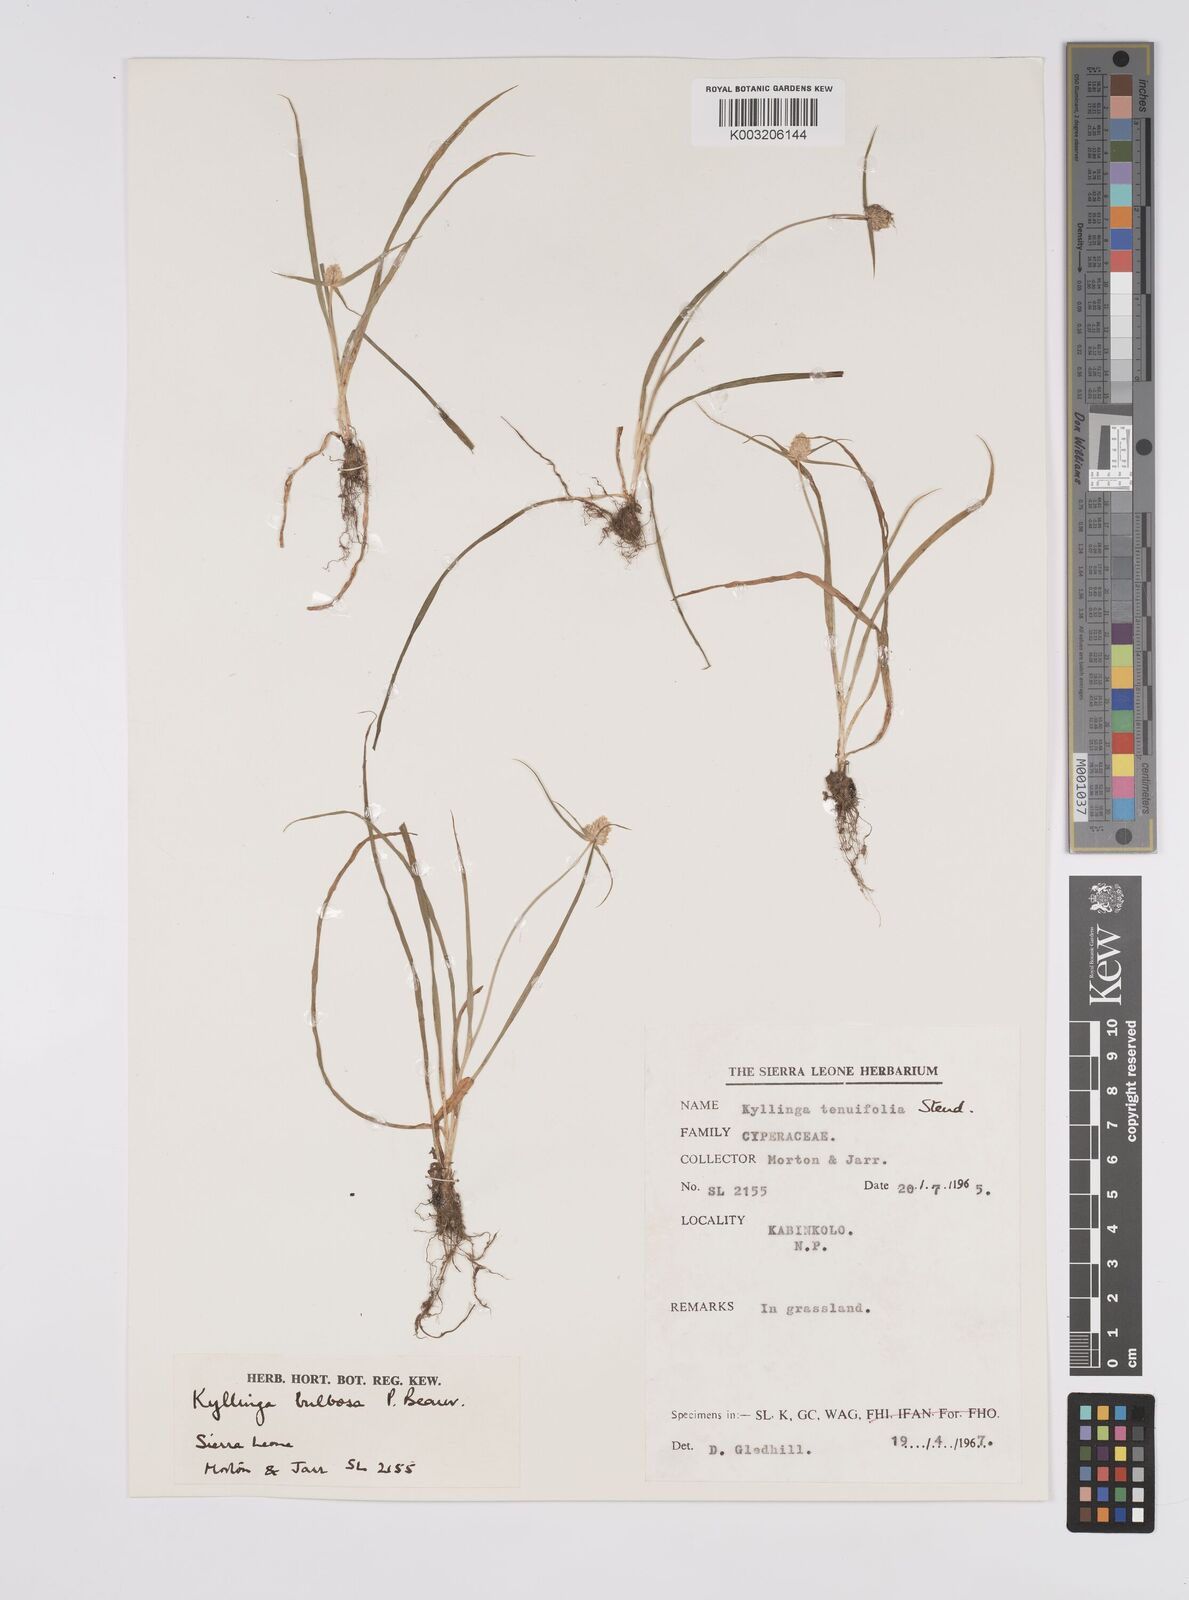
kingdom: Plantae
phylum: Tracheophyta
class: Liliopsida
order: Poales
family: Cyperaceae
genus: Cyperus
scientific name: Cyperus
